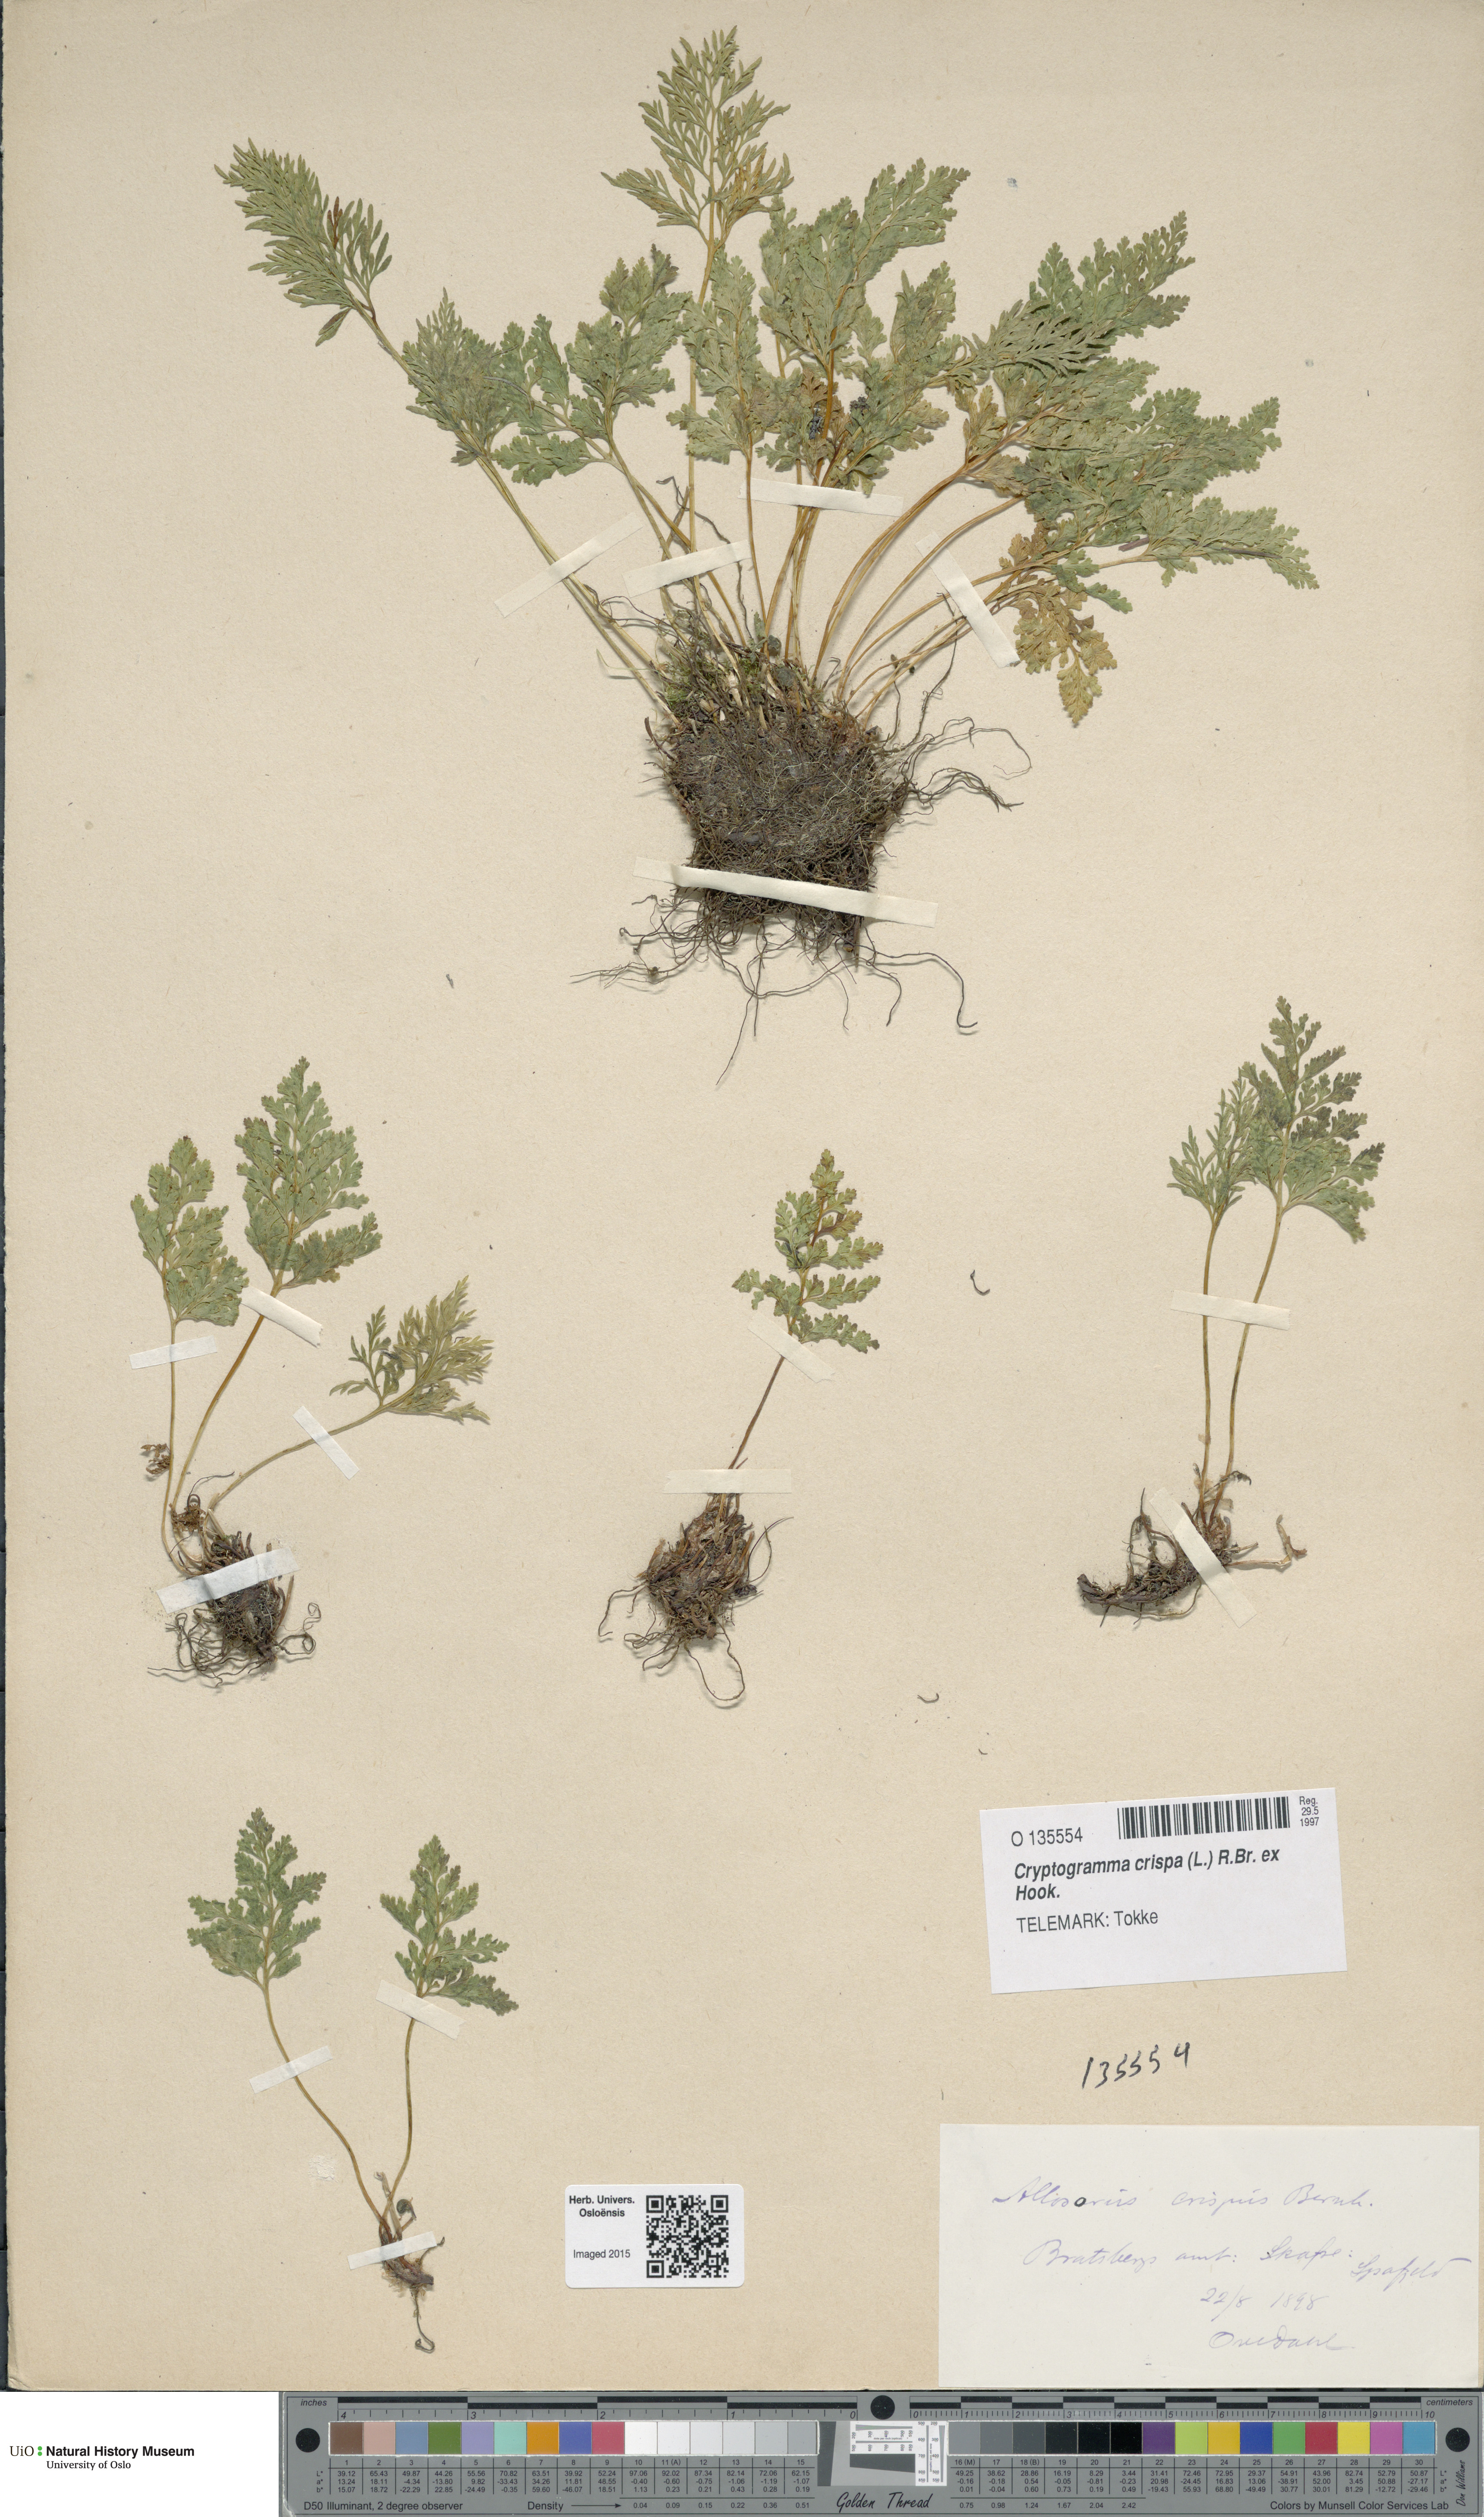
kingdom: Plantae
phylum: Tracheophyta
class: Polypodiopsida
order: Polypodiales
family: Pteridaceae
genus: Cryptogramma
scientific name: Cryptogramma crispa
